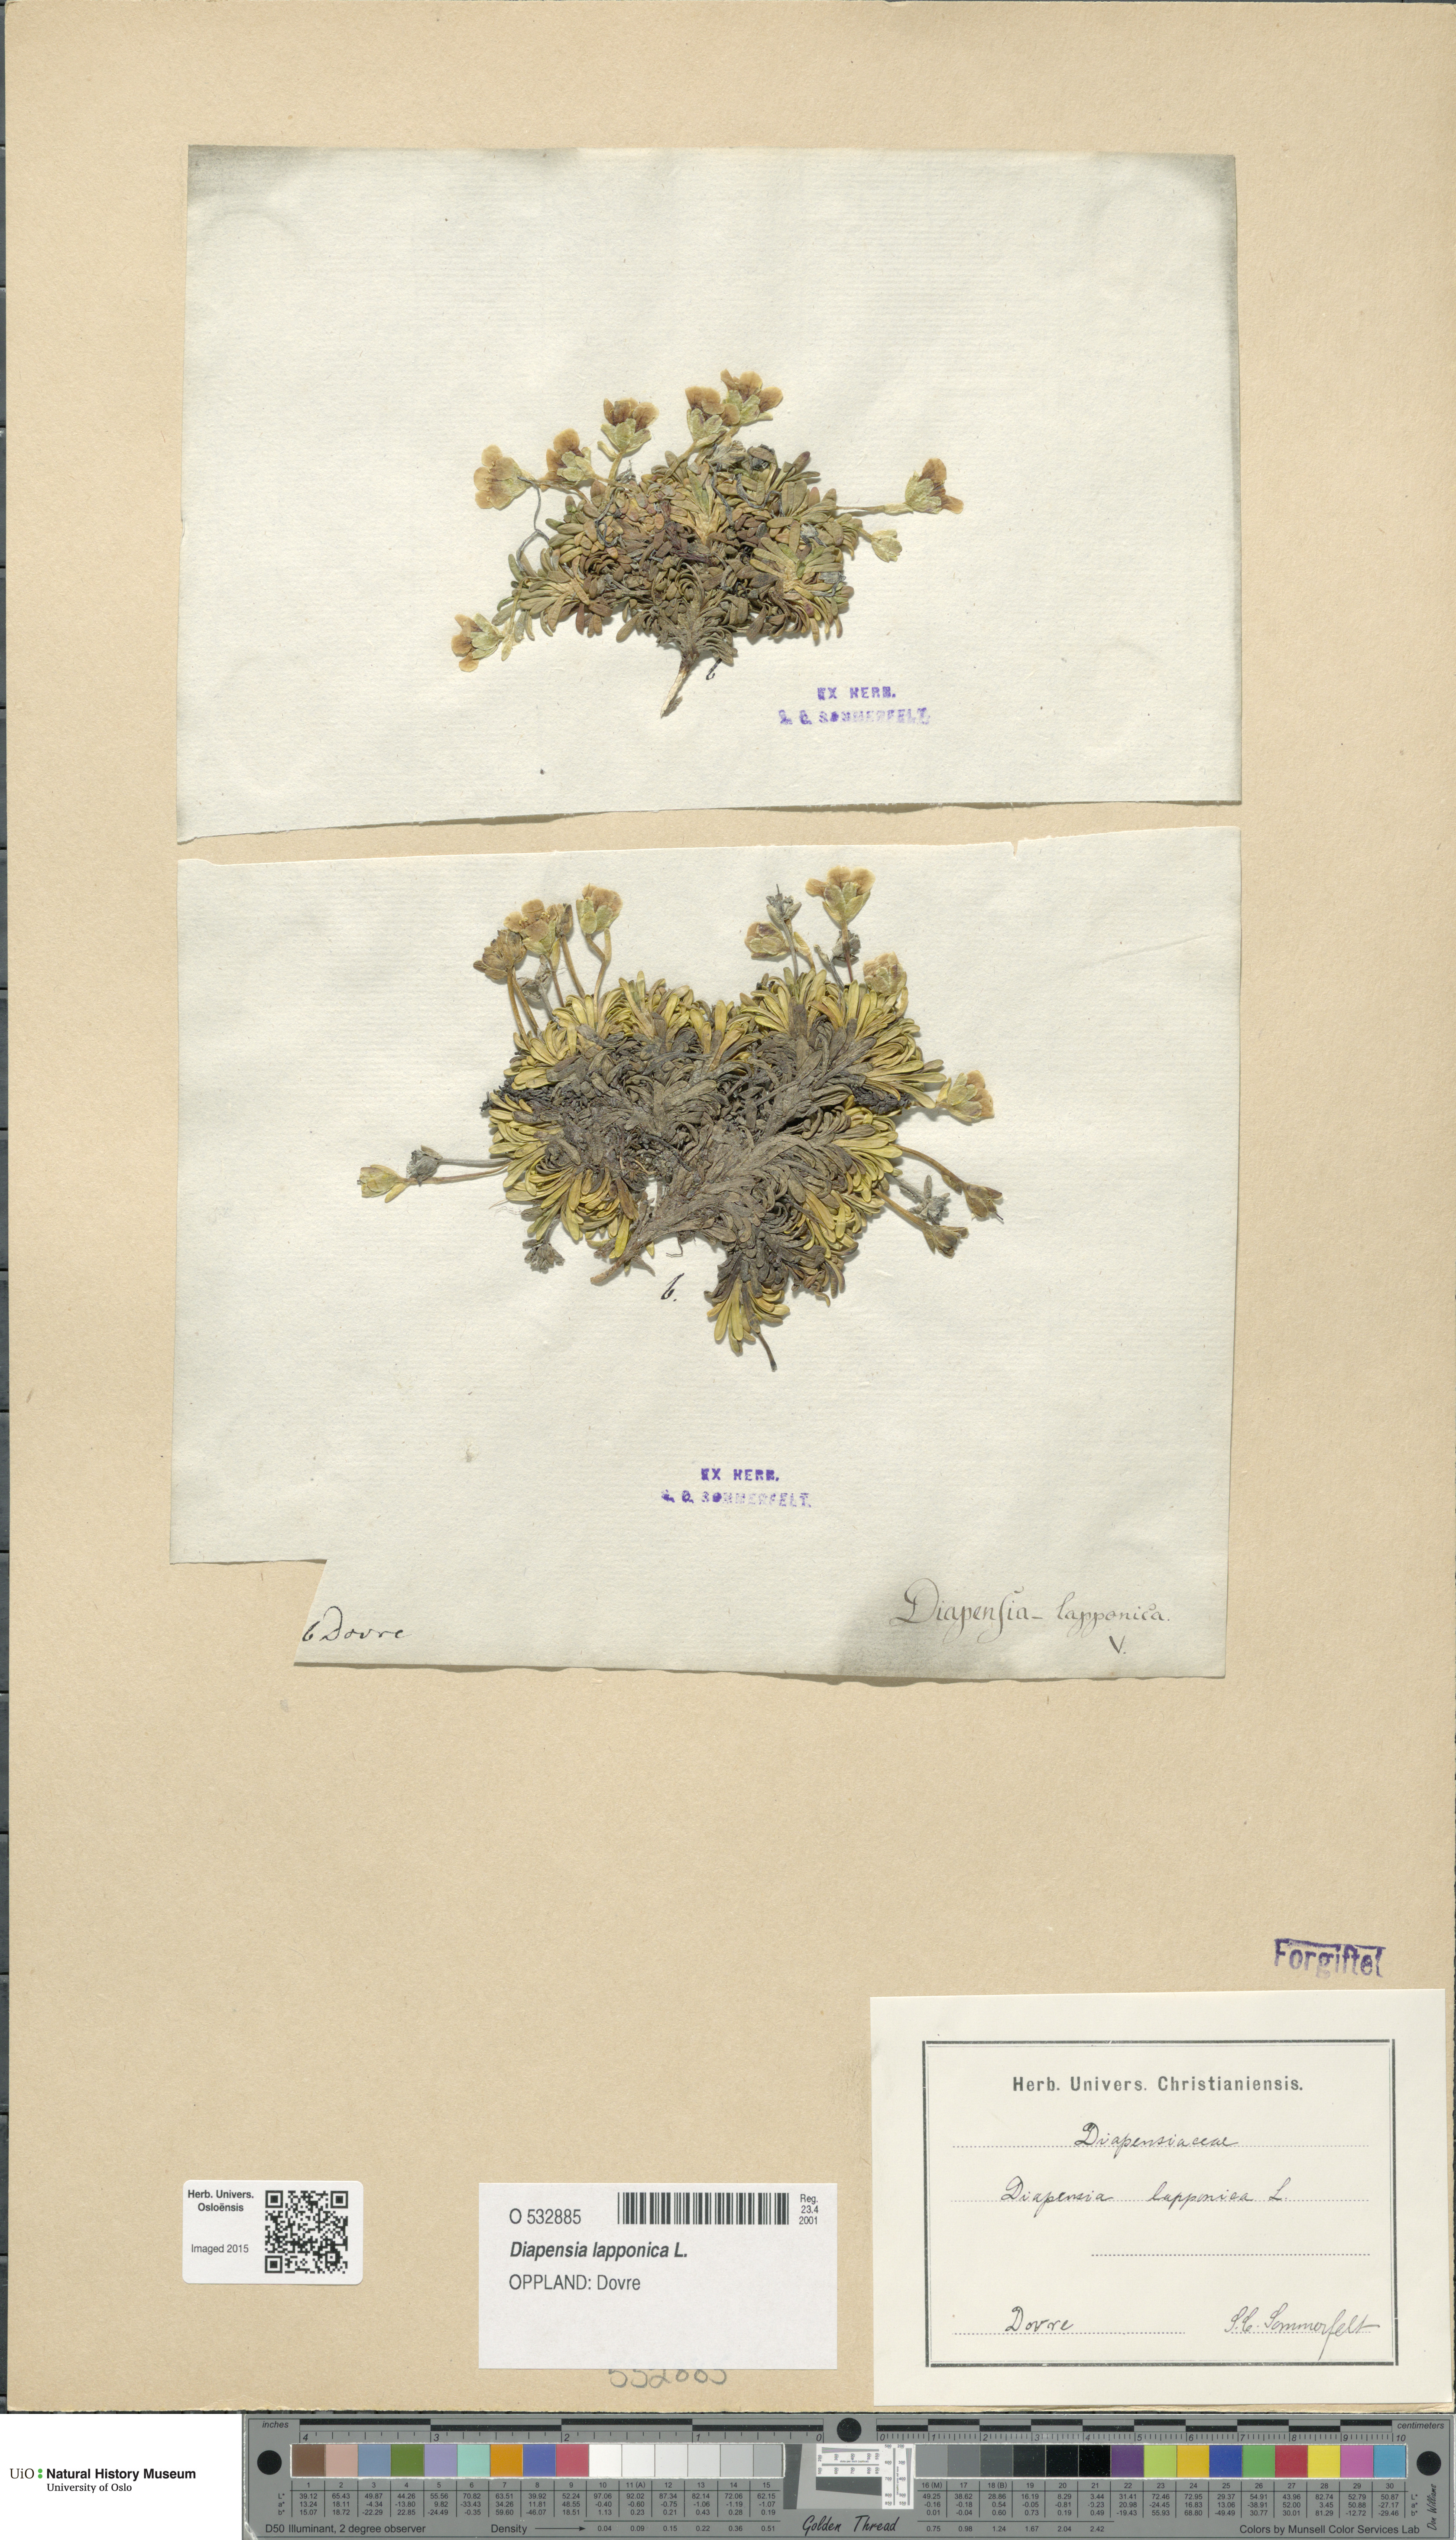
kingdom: Plantae
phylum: Tracheophyta
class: Magnoliopsida
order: Ericales
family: Diapensiaceae
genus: Diapensia
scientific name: Diapensia lapponica
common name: Diapensia
